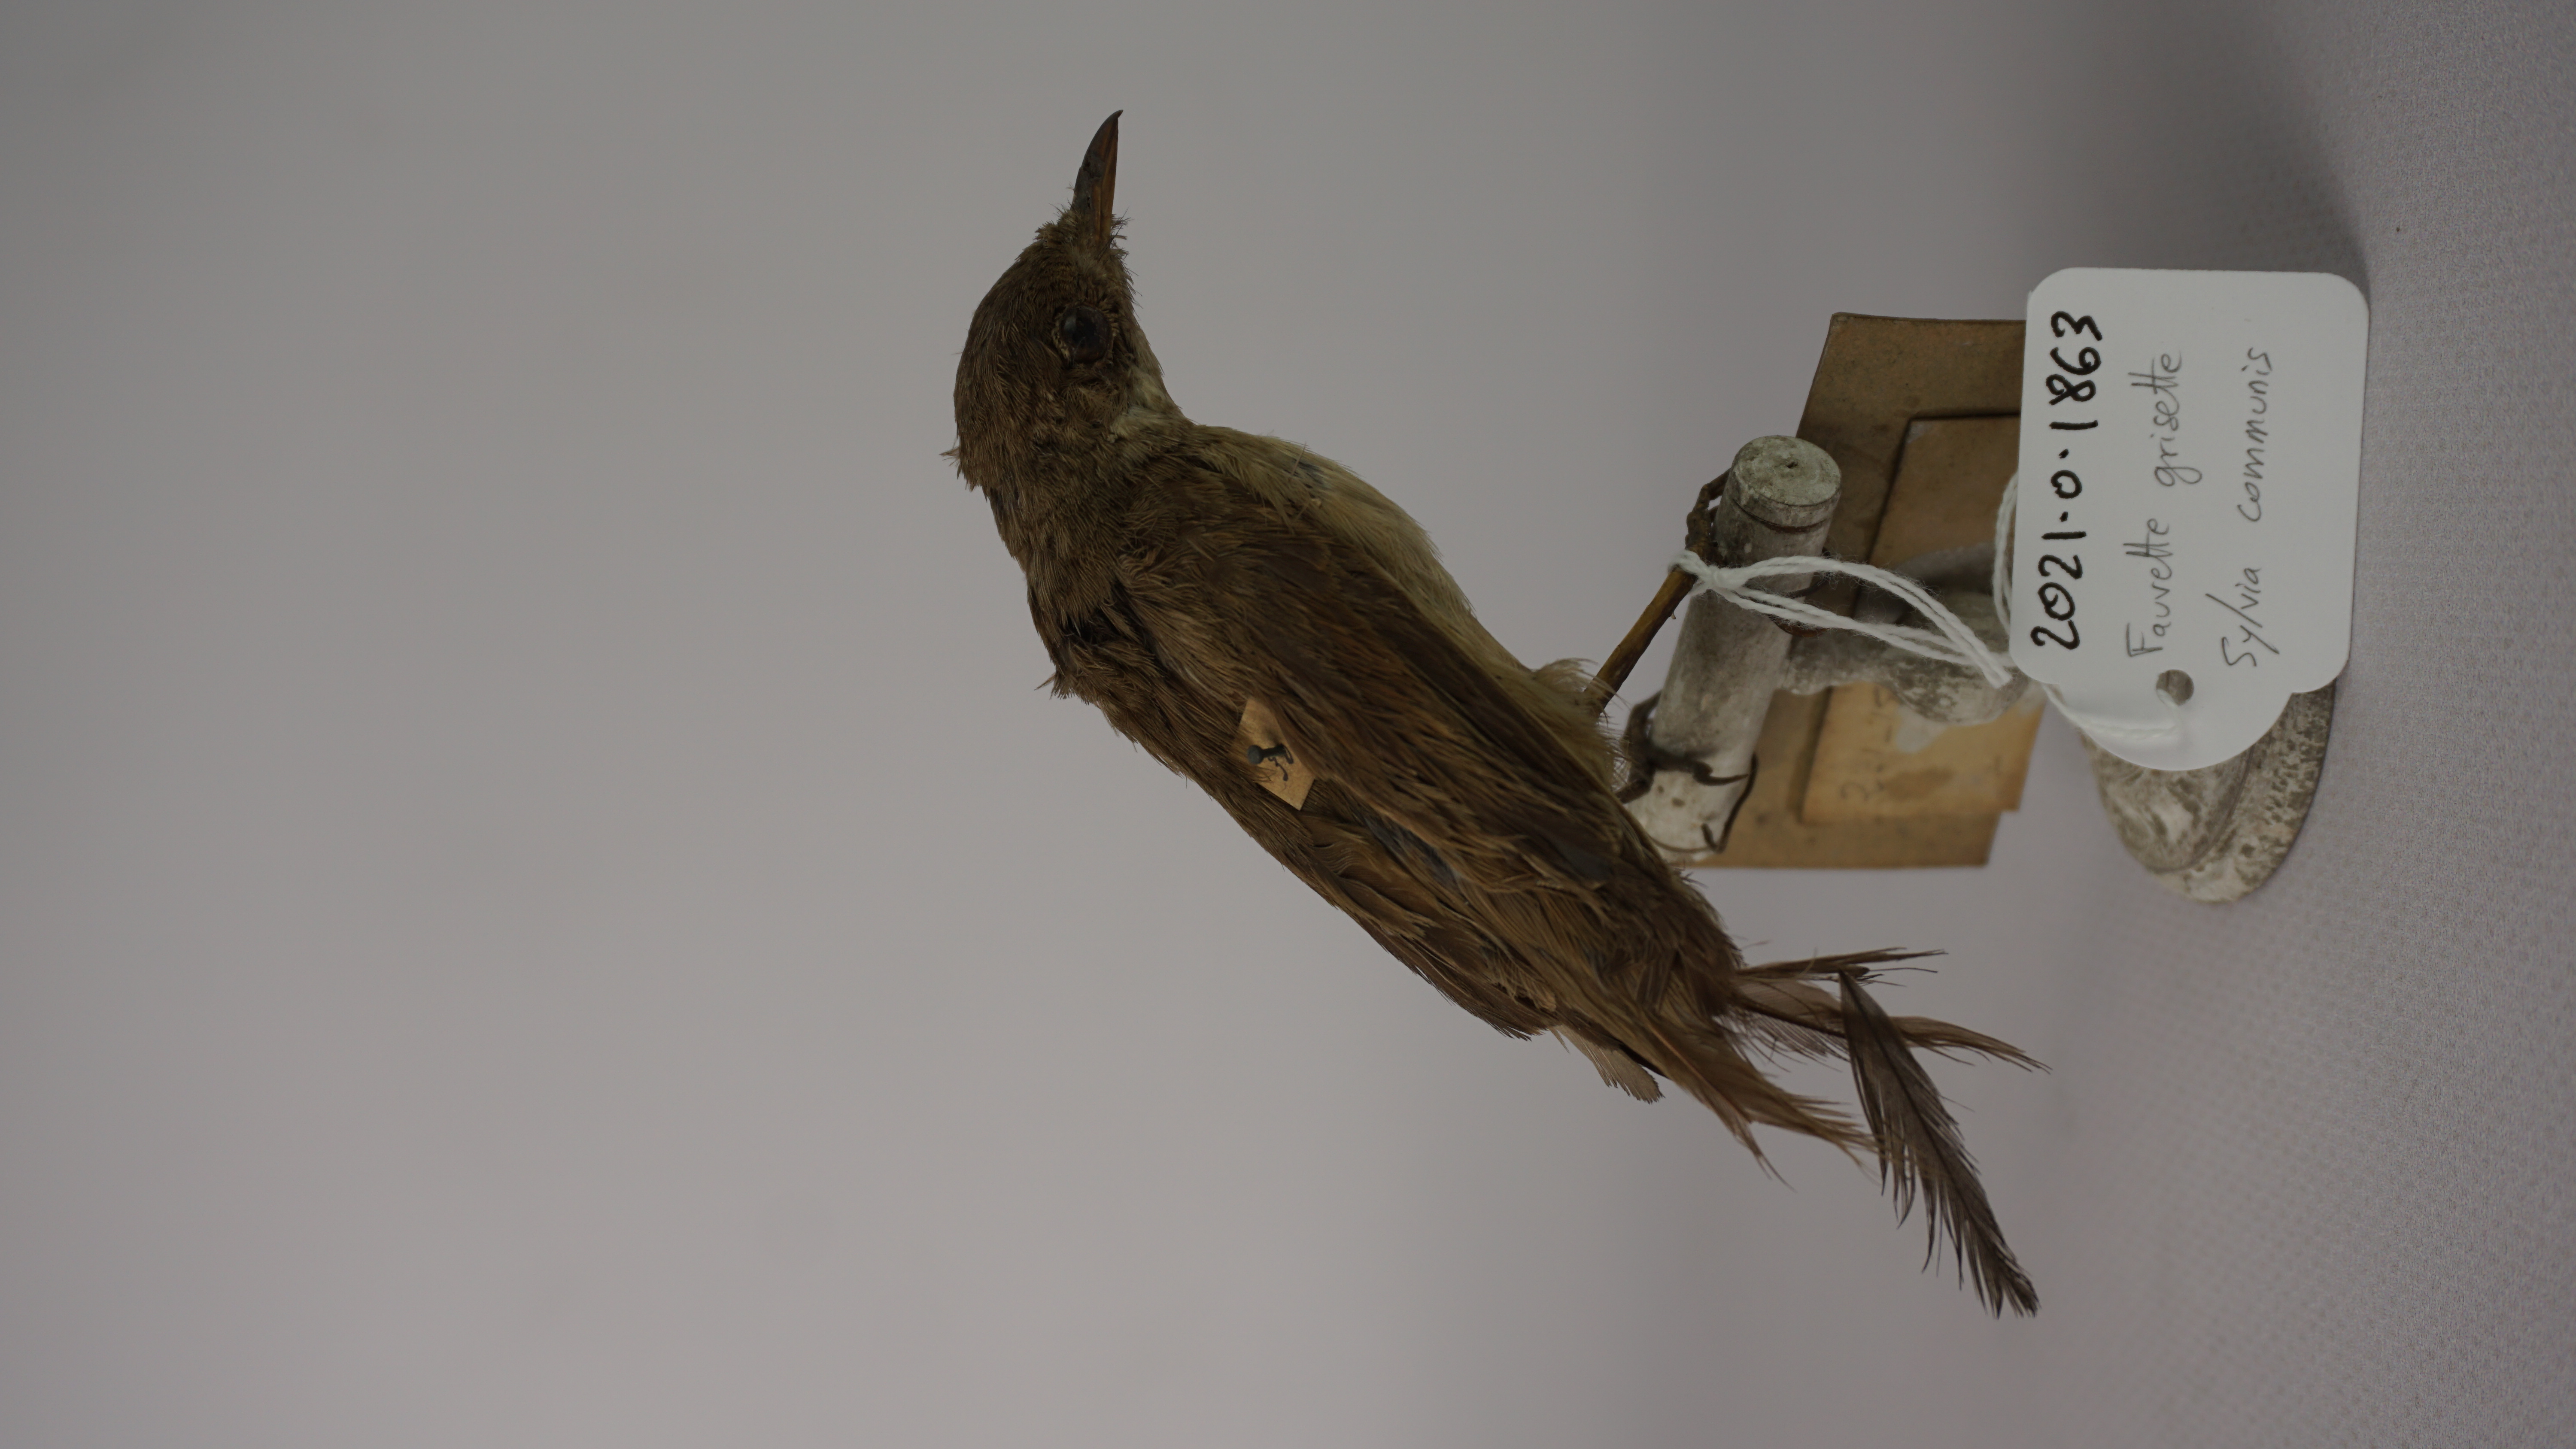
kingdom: Animalia
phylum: Chordata
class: Aves
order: Passeriformes
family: Sylviidae
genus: Sylvia
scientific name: Sylvia communis
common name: Common whitethroat
